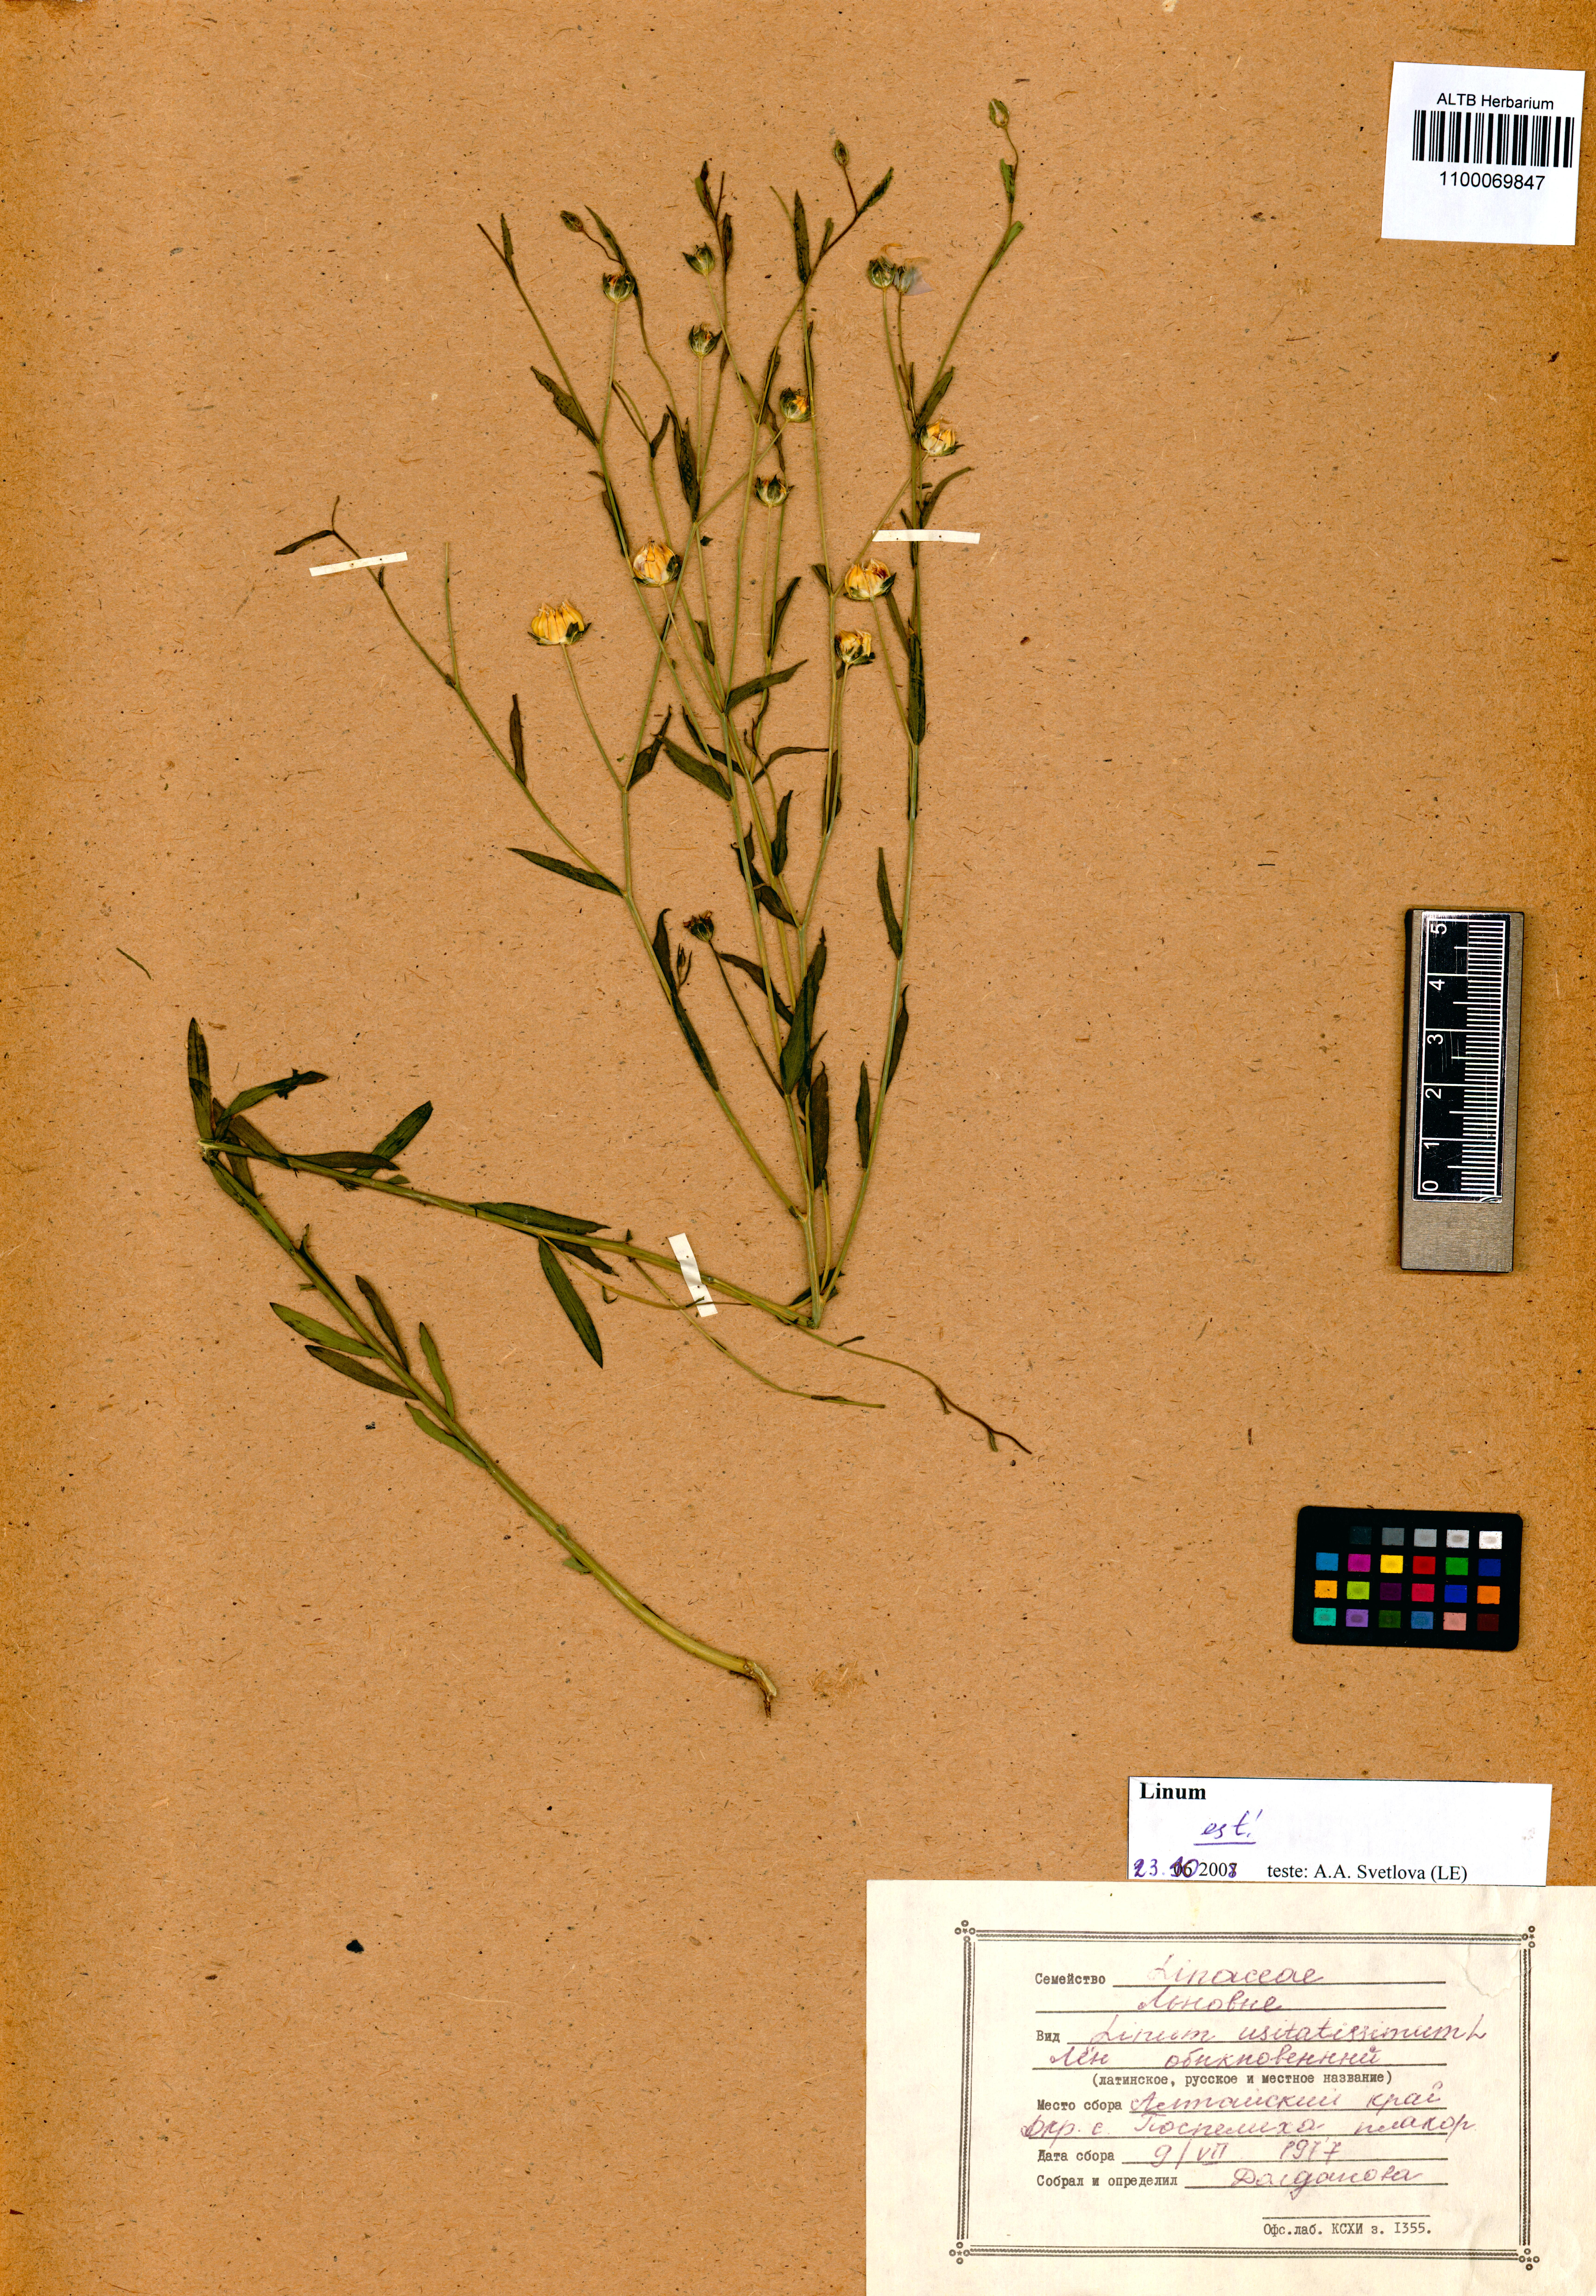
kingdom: Plantae
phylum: Tracheophyta
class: Magnoliopsida
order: Malpighiales
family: Linaceae
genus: Linum
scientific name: Linum usitatissimum
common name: Flax
